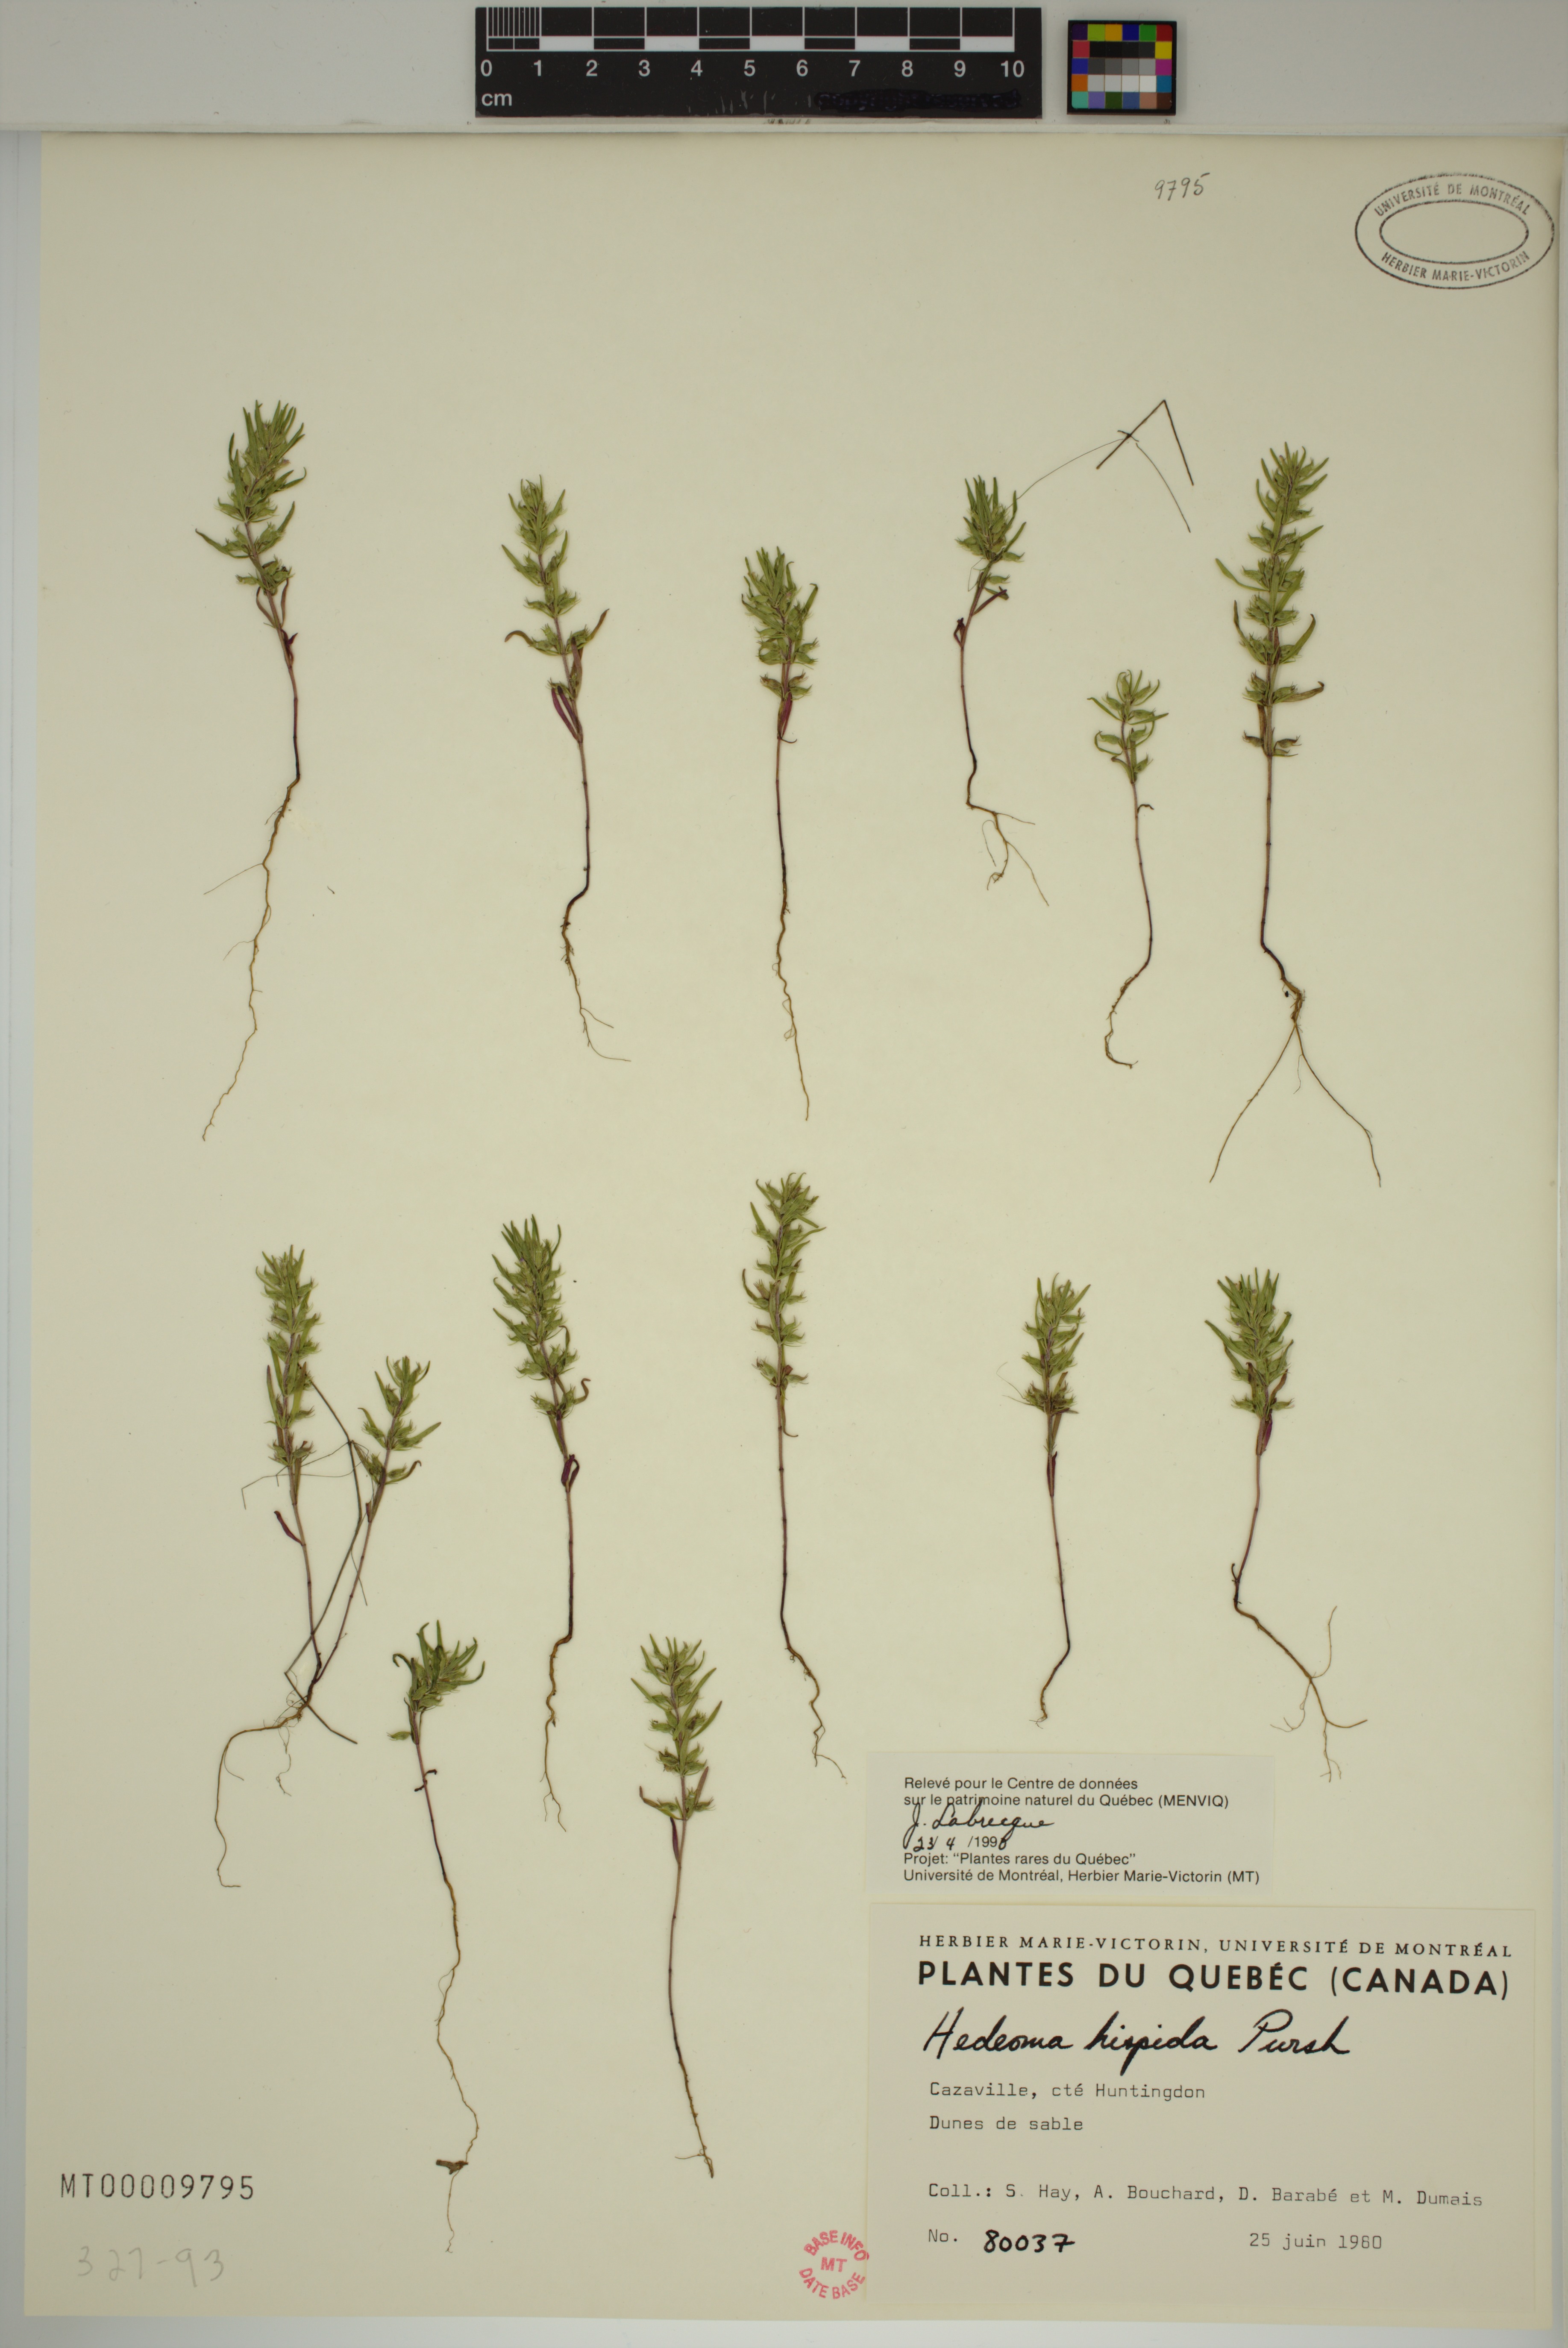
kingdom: Plantae
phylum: Tracheophyta
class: Magnoliopsida
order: Lamiales
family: Lamiaceae
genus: Hedeoma
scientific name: Hedeoma hispida
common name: Mock pennyroyal
